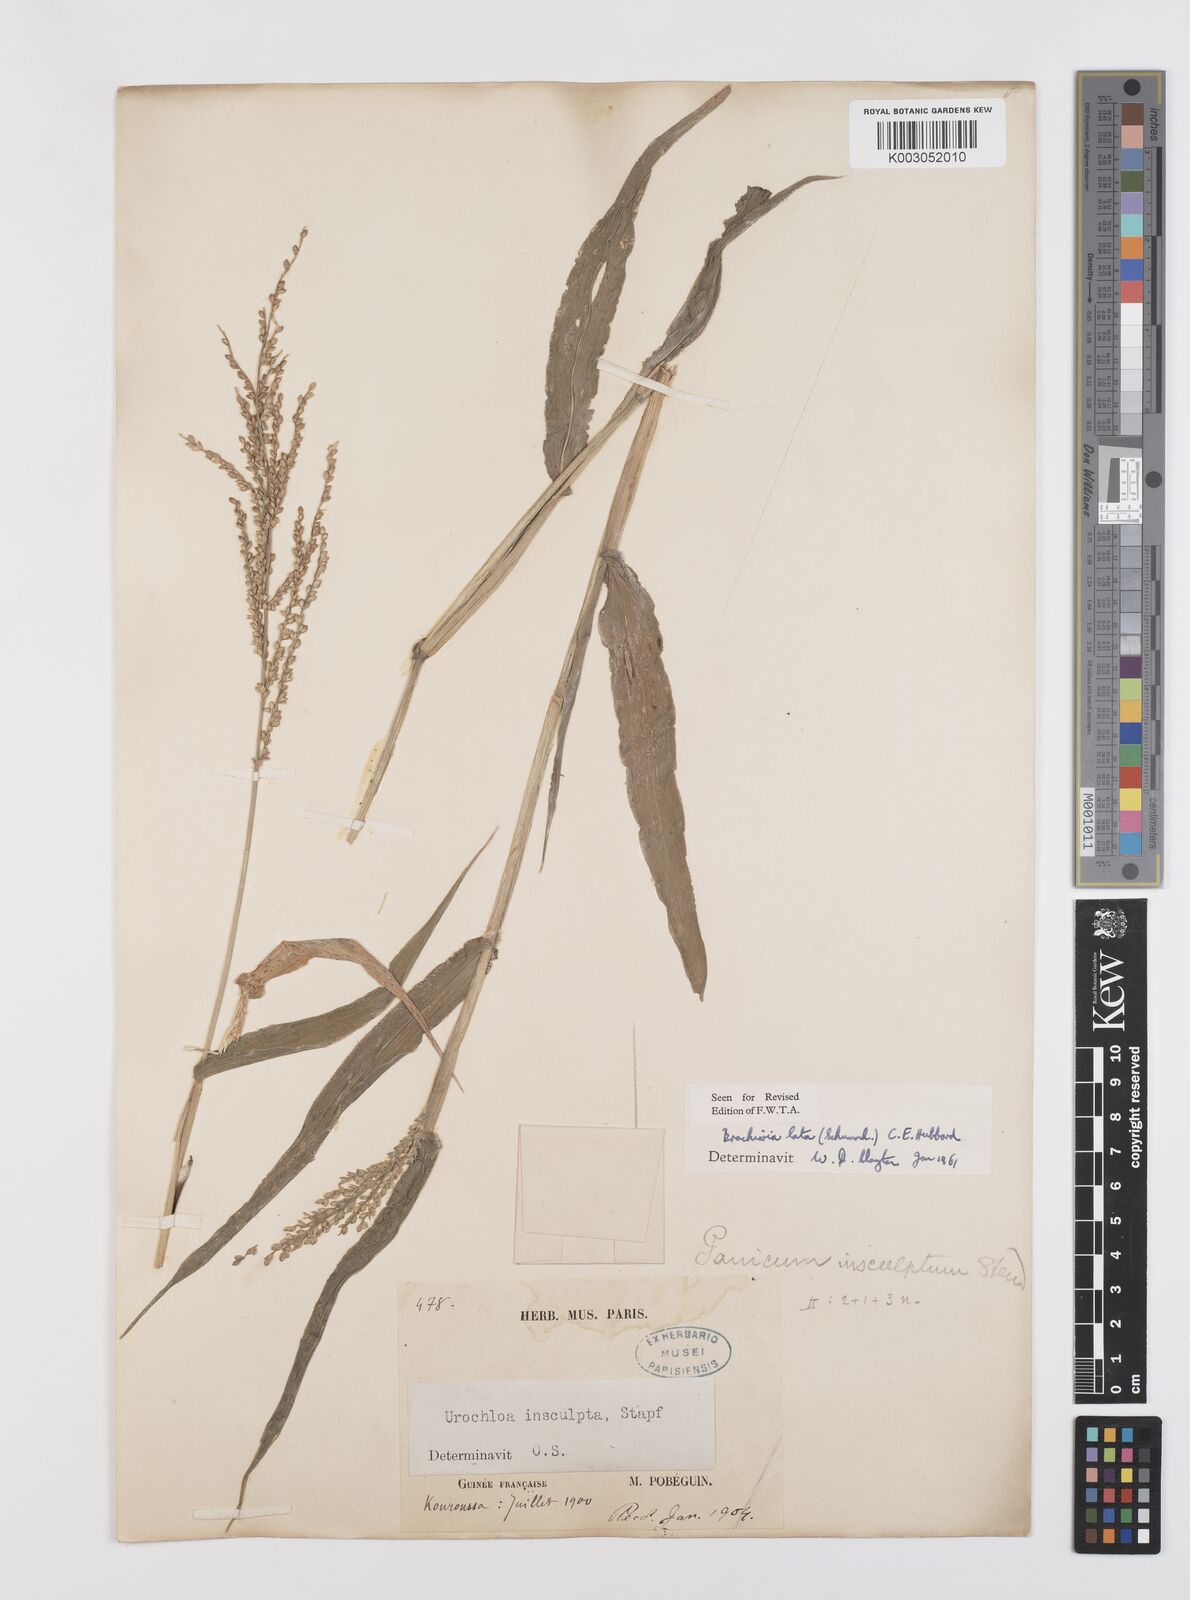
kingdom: Plantae
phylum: Tracheophyta
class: Liliopsida
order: Poales
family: Poaceae
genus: Urochloa
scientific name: Urochloa ramosa
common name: Browntop millet
